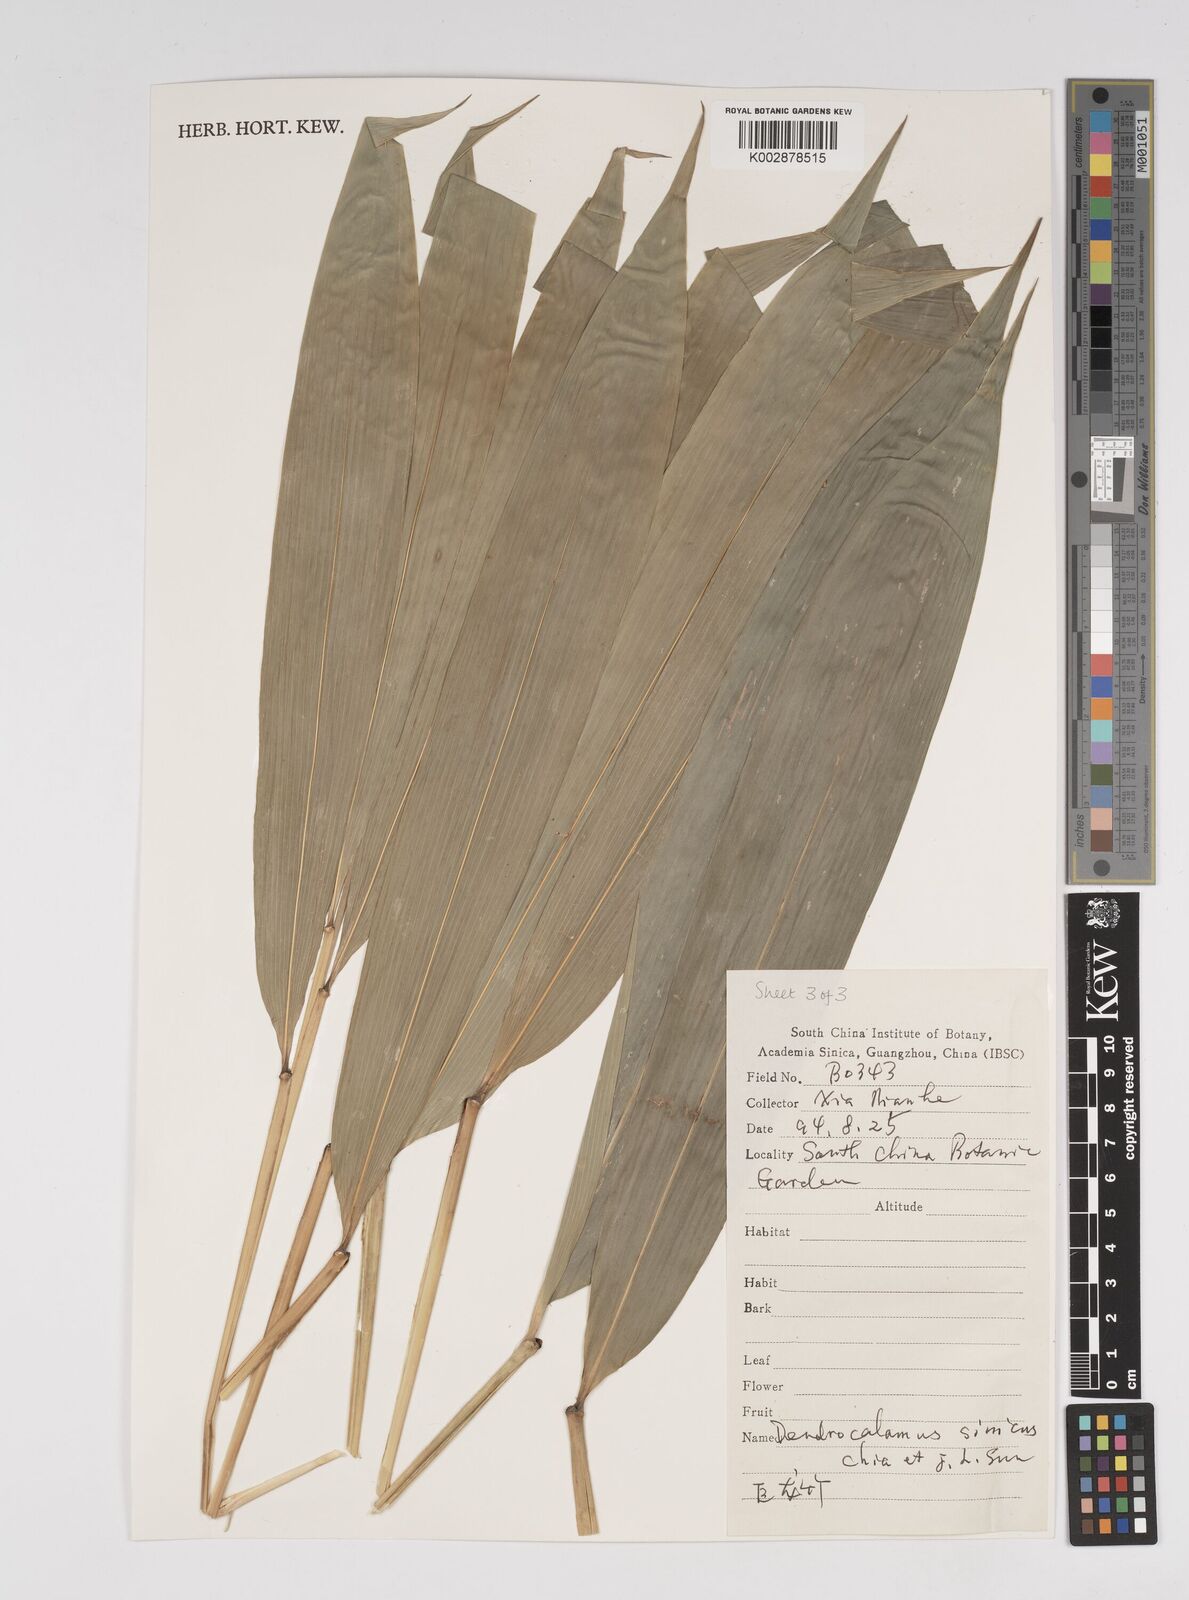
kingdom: Plantae
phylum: Tracheophyta
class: Liliopsida
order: Poales
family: Poaceae
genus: Dendrocalamus
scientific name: Dendrocalamus sinicus
